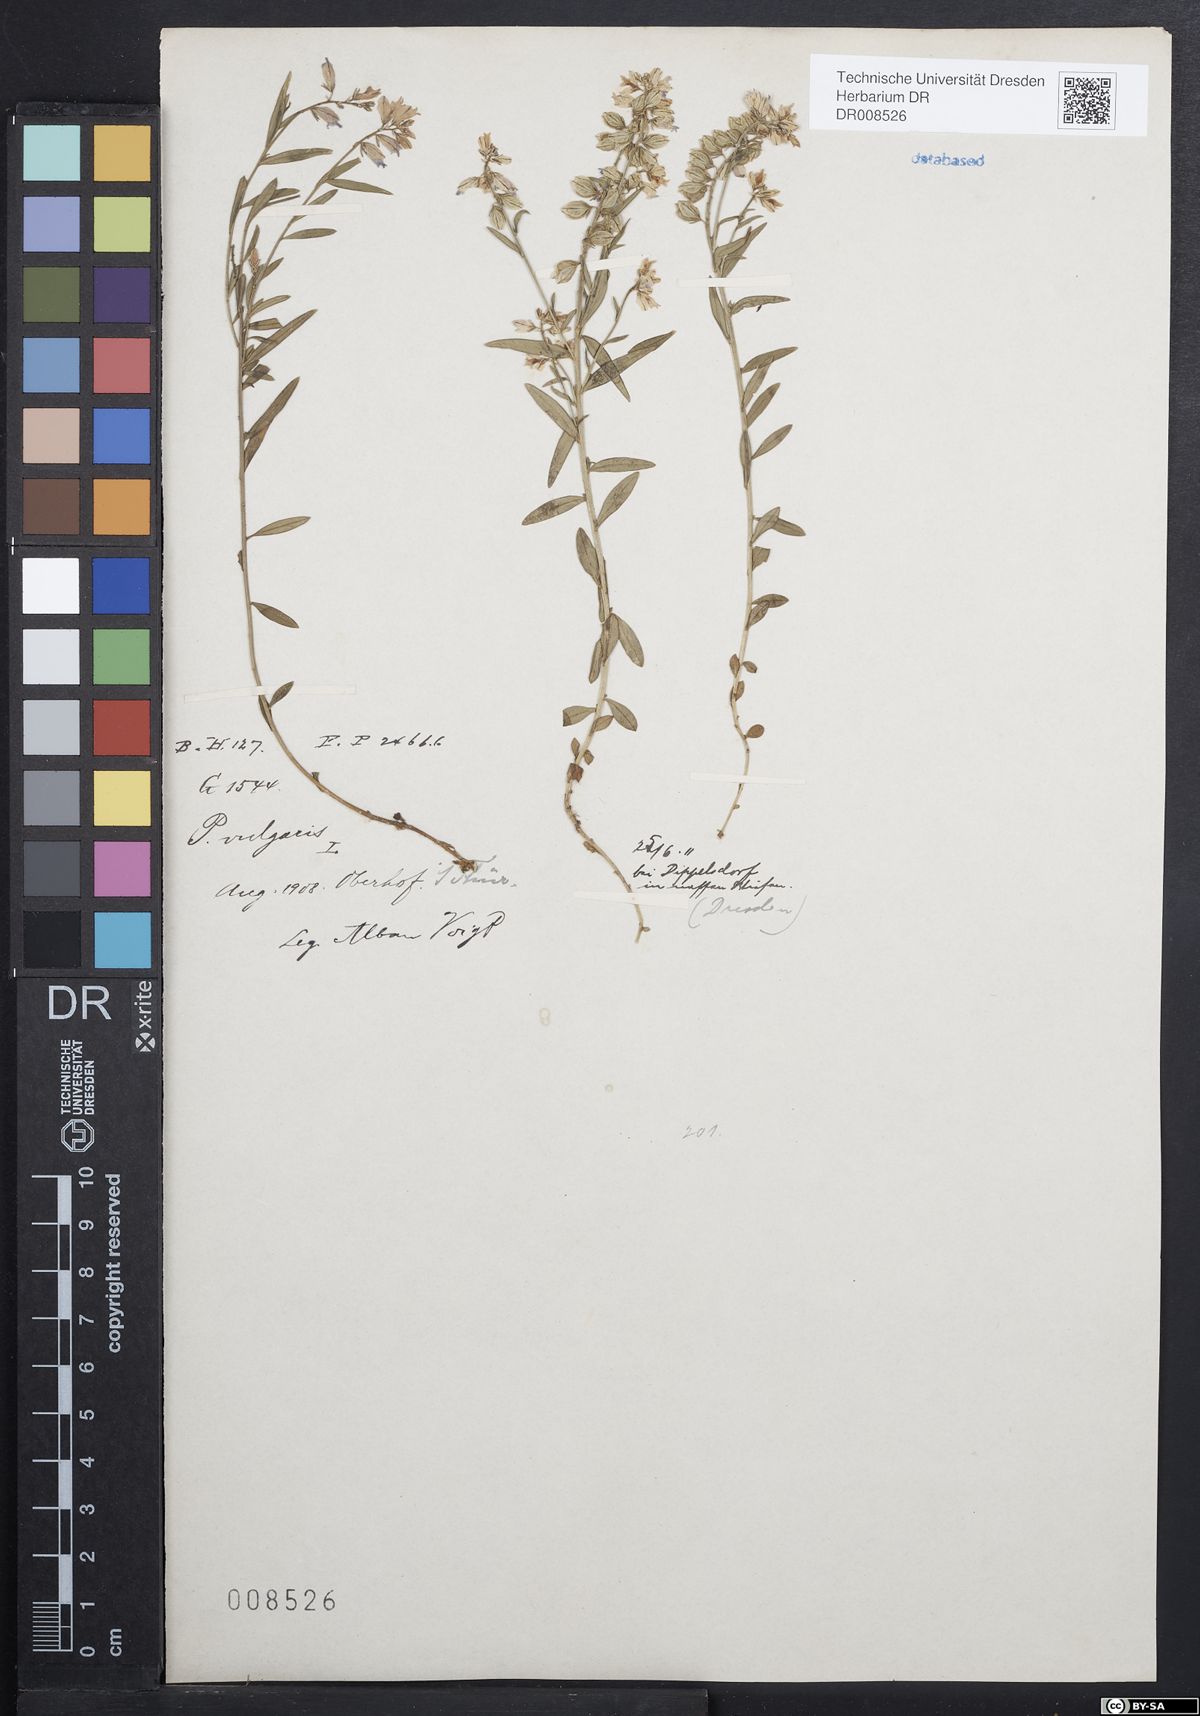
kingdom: Plantae
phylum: Tracheophyta
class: Magnoliopsida
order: Fabales
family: Polygalaceae
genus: Polygala
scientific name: Polygala vulgaris
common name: Common milkwort
